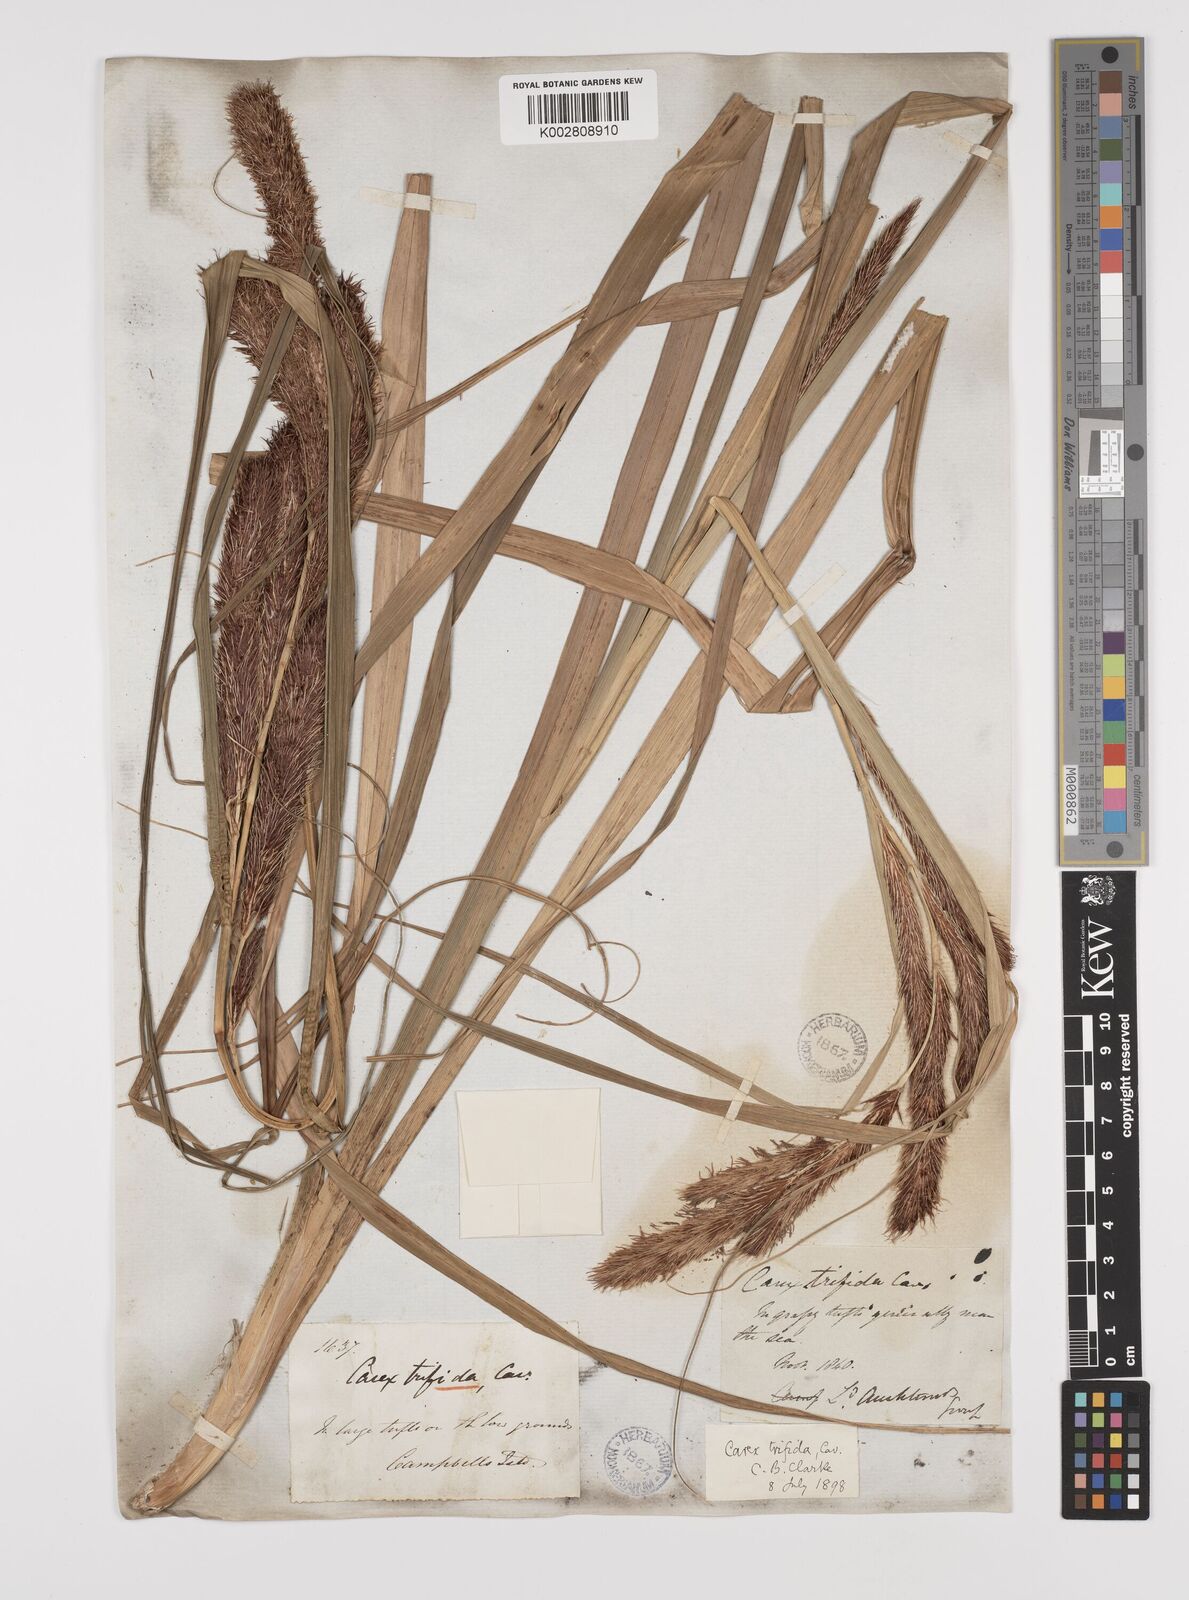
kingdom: Plantae
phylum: Tracheophyta
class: Liliopsida
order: Poales
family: Cyperaceae
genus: Carex
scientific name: Carex trifida
